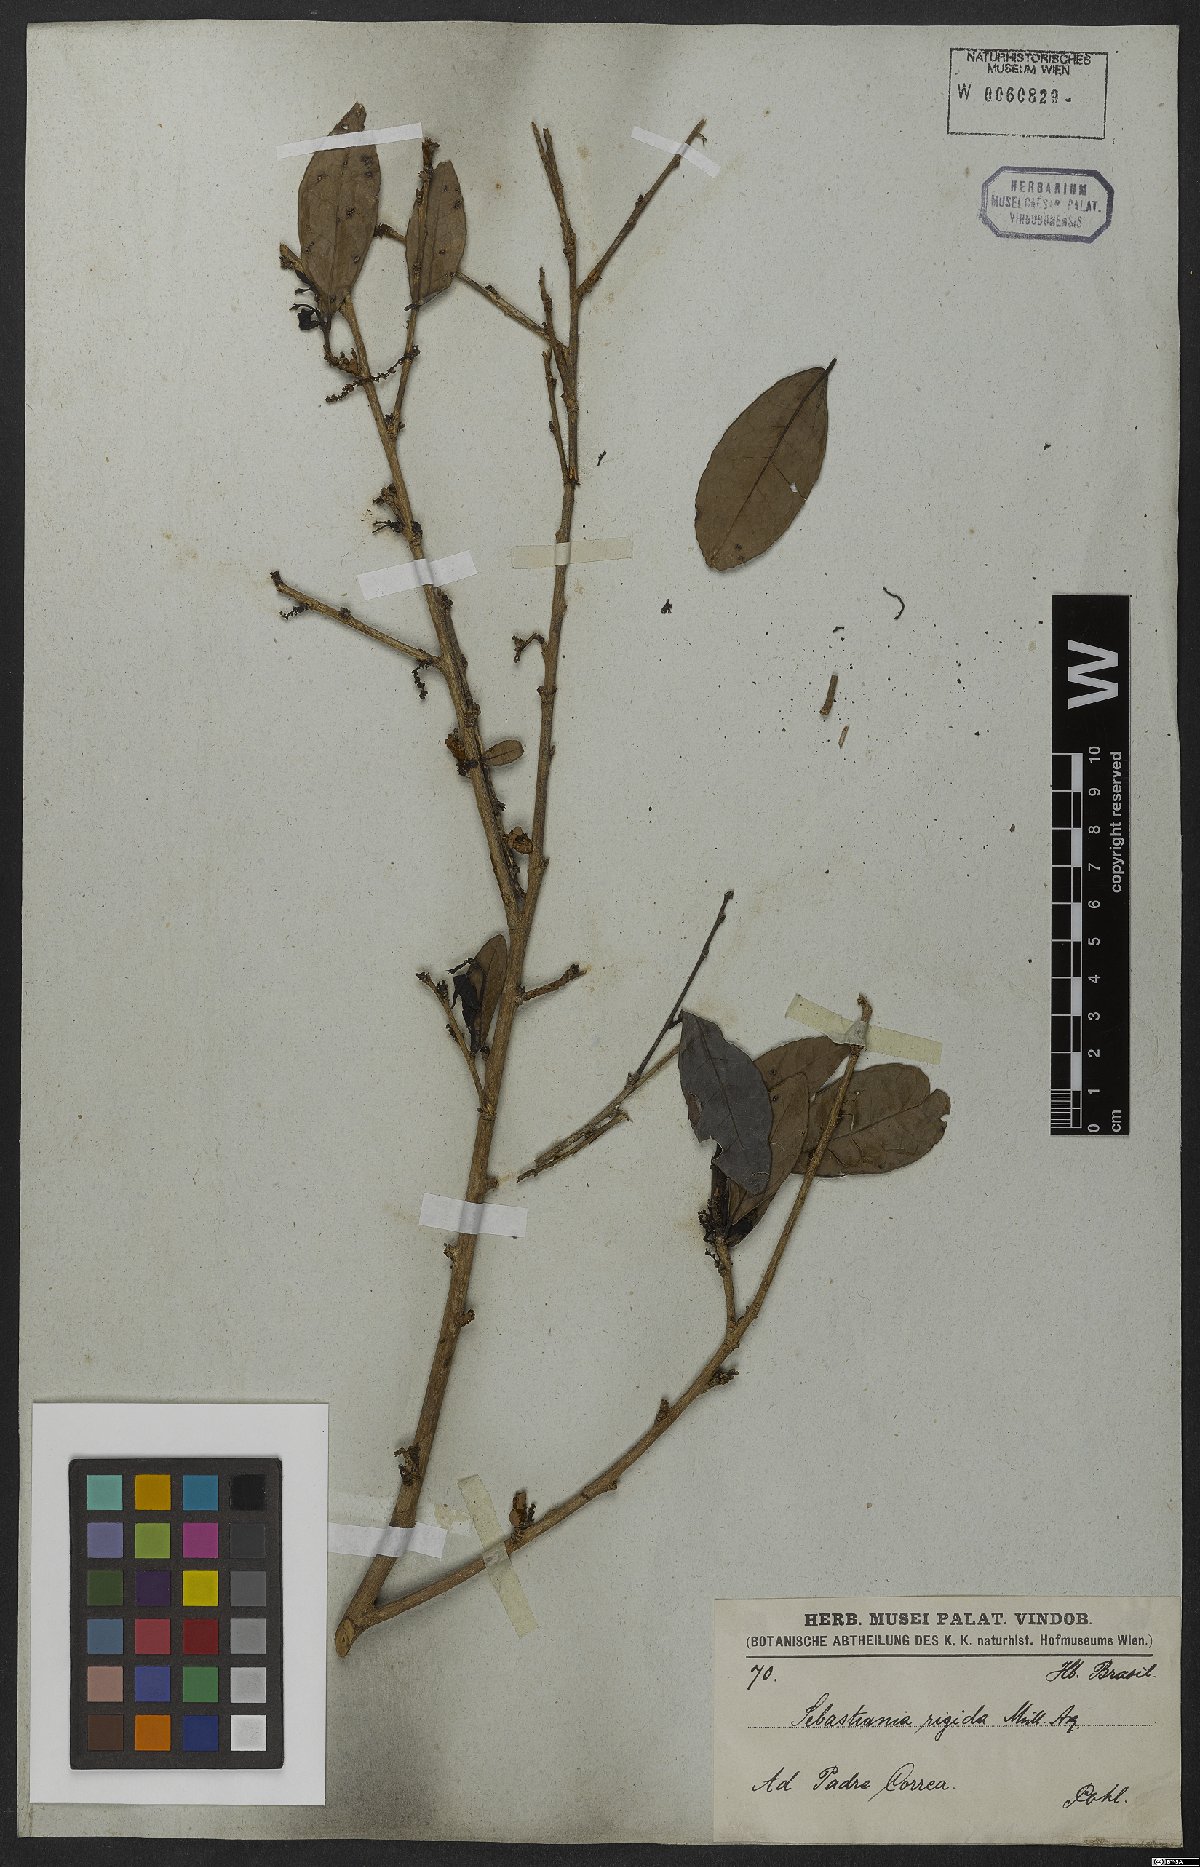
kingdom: Plantae
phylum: Tracheophyta
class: Magnoliopsida
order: Malpighiales
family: Euphorbiaceae
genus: Sebastiania
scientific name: Sebastiania rigida
